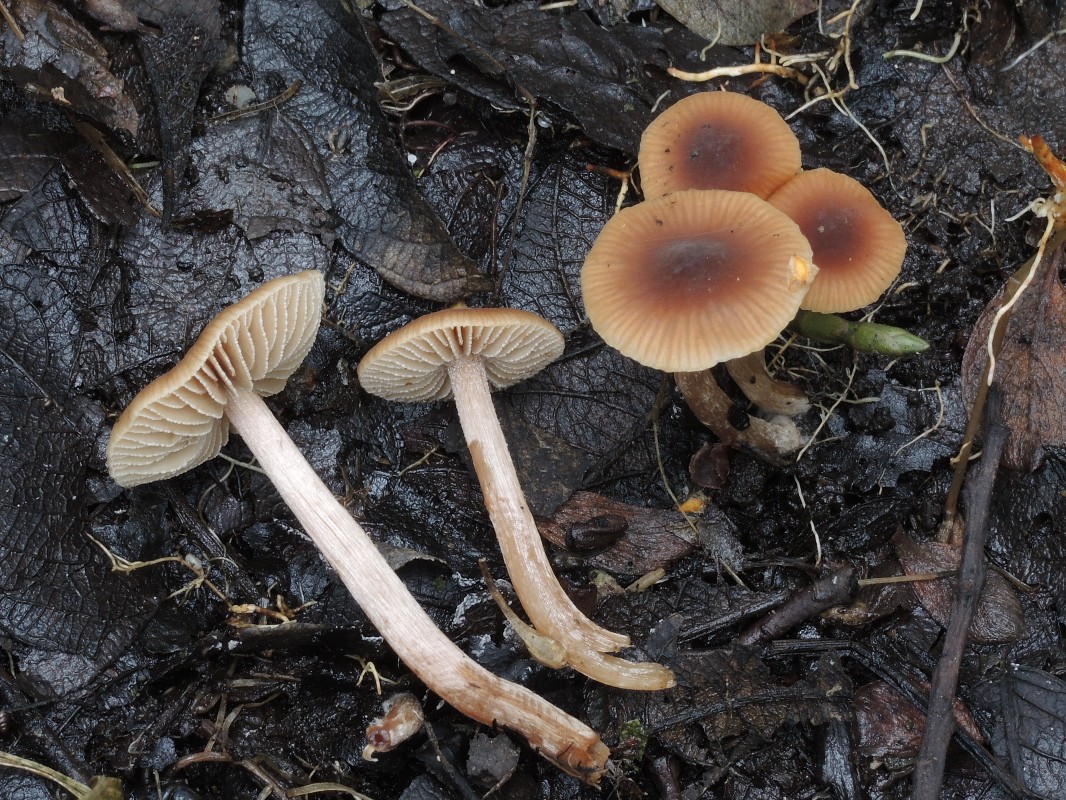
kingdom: Fungi
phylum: Basidiomycota
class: Agaricomycetes
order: Agaricales
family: Hymenogastraceae
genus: Naucoria
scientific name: Naucoria salicis
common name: pile-knaphat
